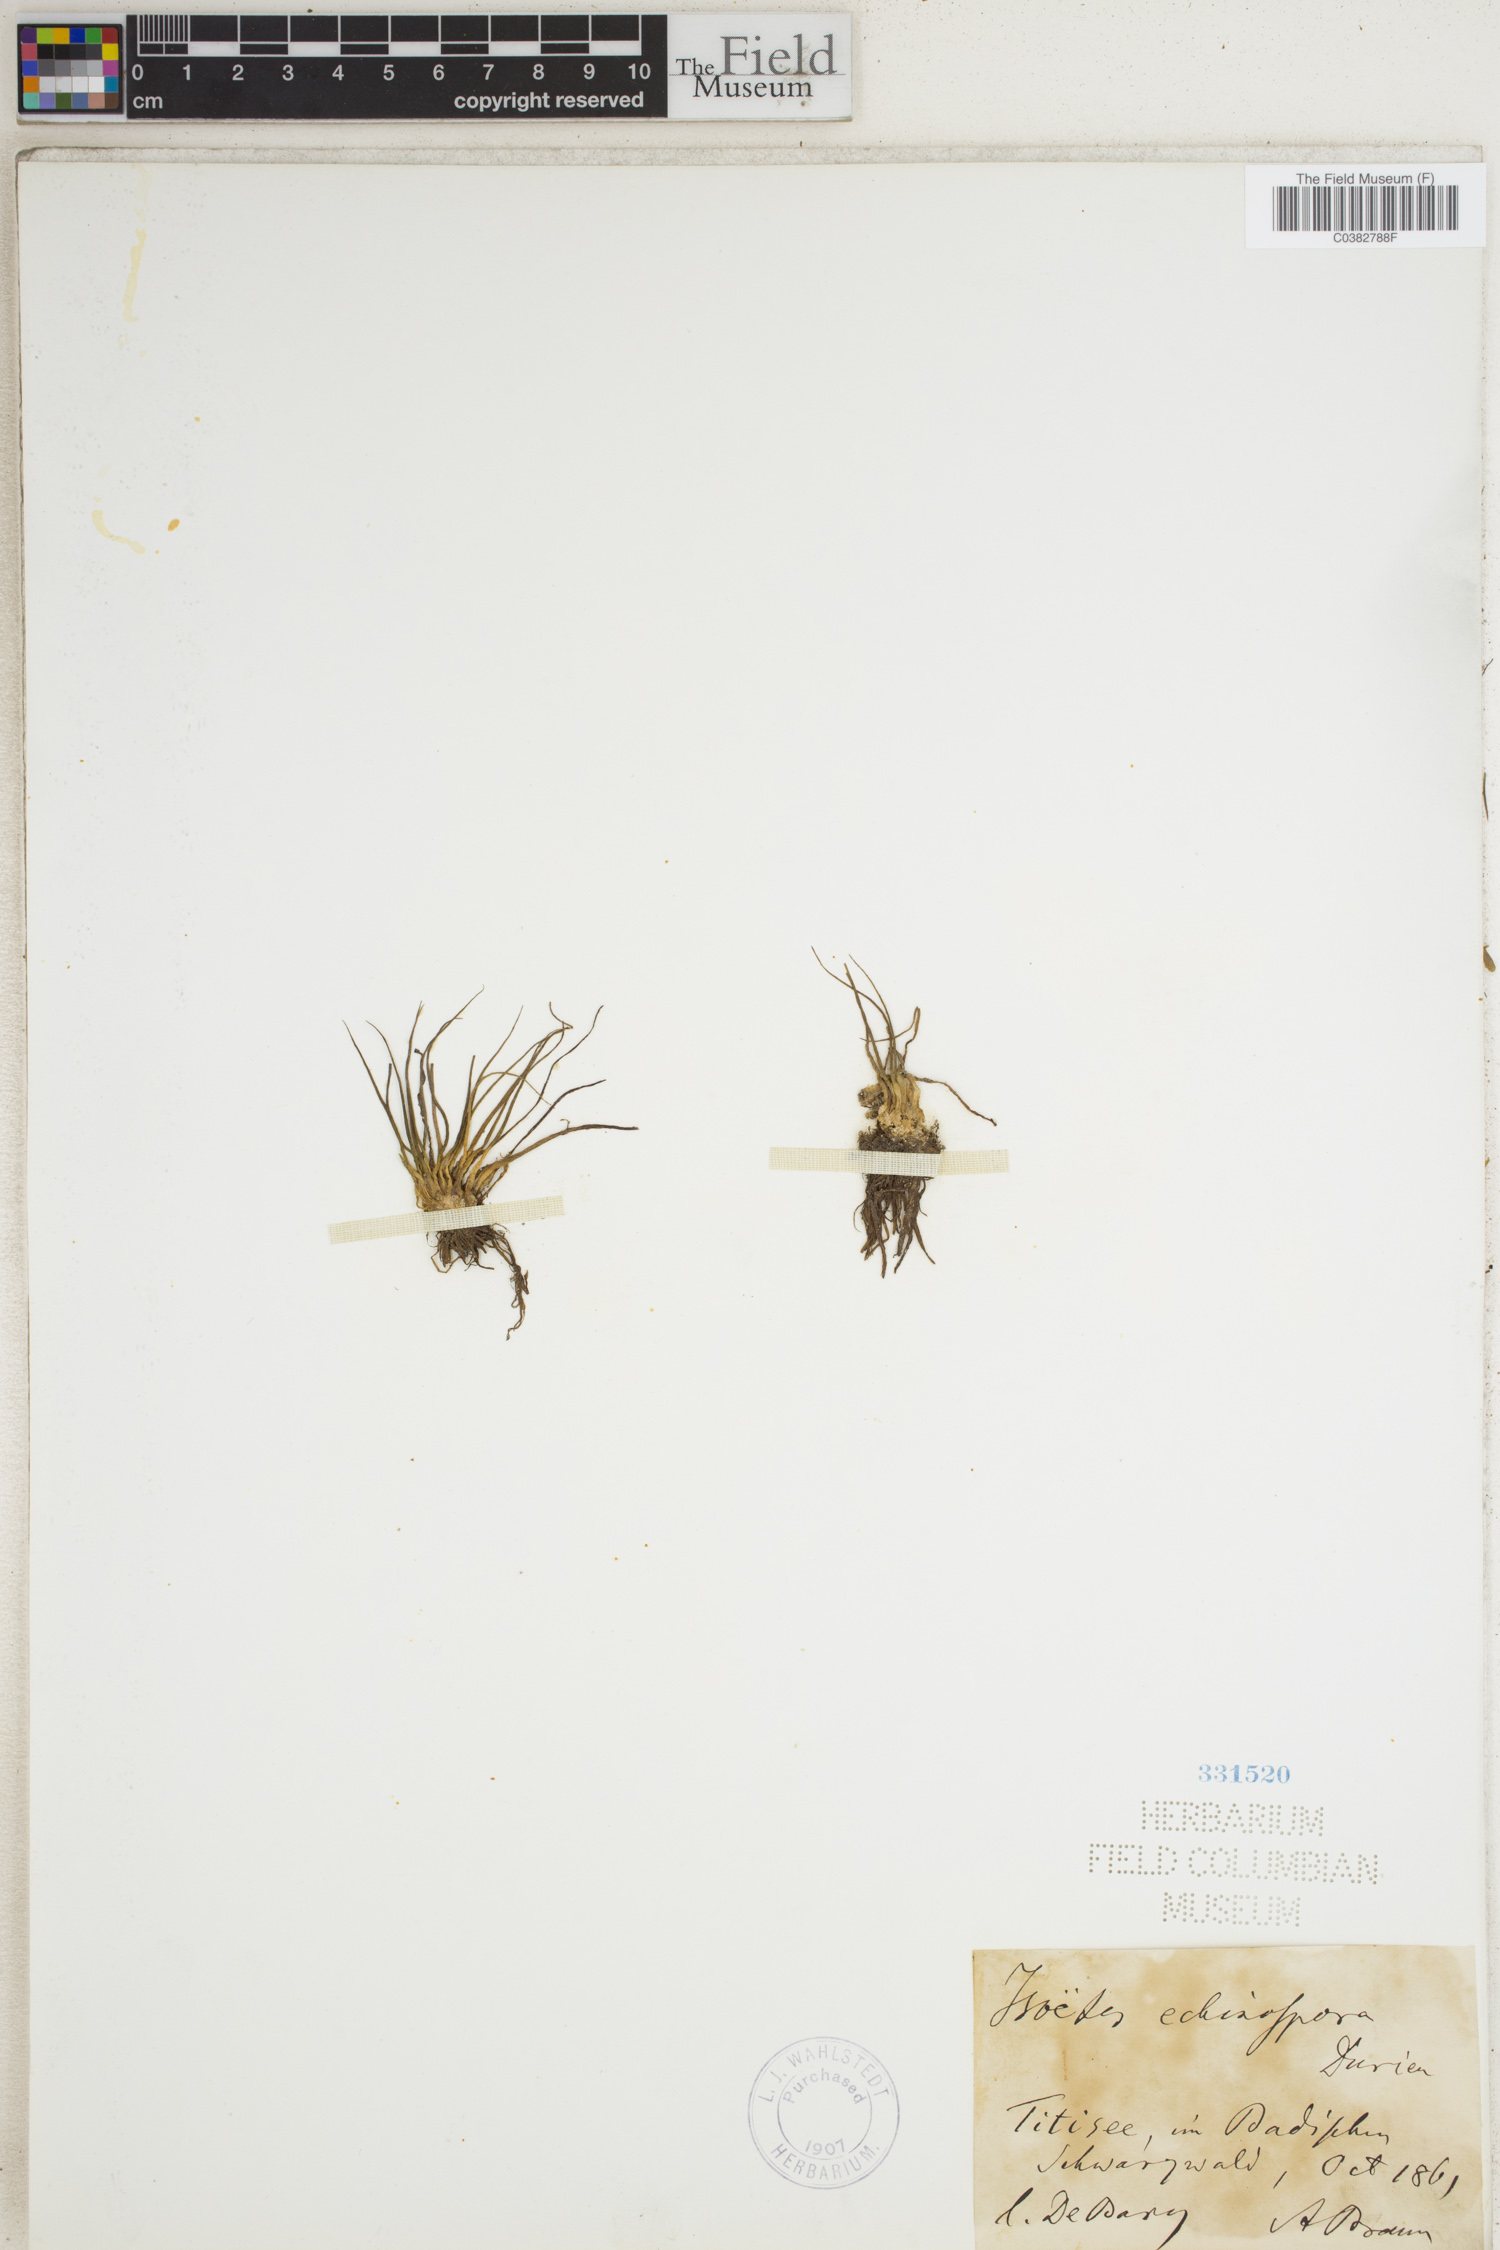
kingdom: Plantae
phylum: Tracheophyta
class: Lycopodiopsida
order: Isoetales
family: Isoetaceae
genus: Isoetes
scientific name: Isoetes echinospora
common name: Spring quillwort
